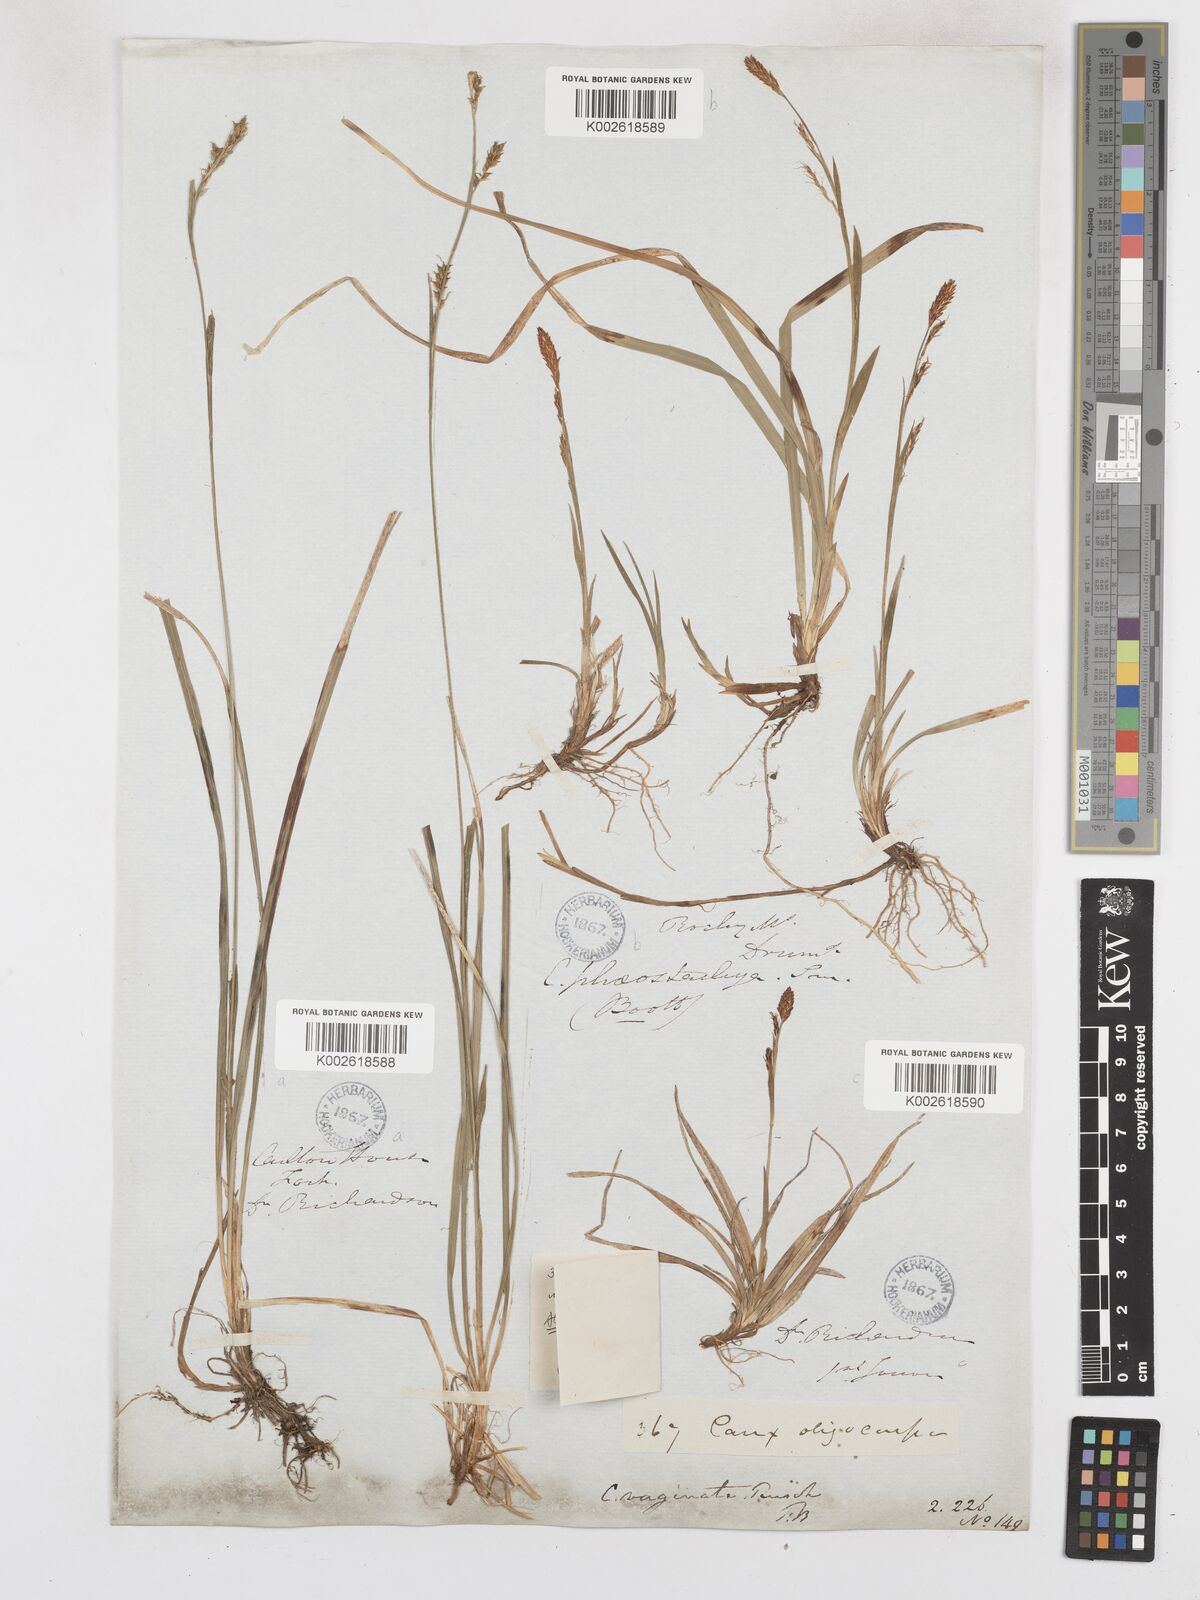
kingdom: Plantae
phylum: Tracheophyta
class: Liliopsida
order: Poales
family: Cyperaceae
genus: Carex
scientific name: Carex vaginata
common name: Sheathed sedge
